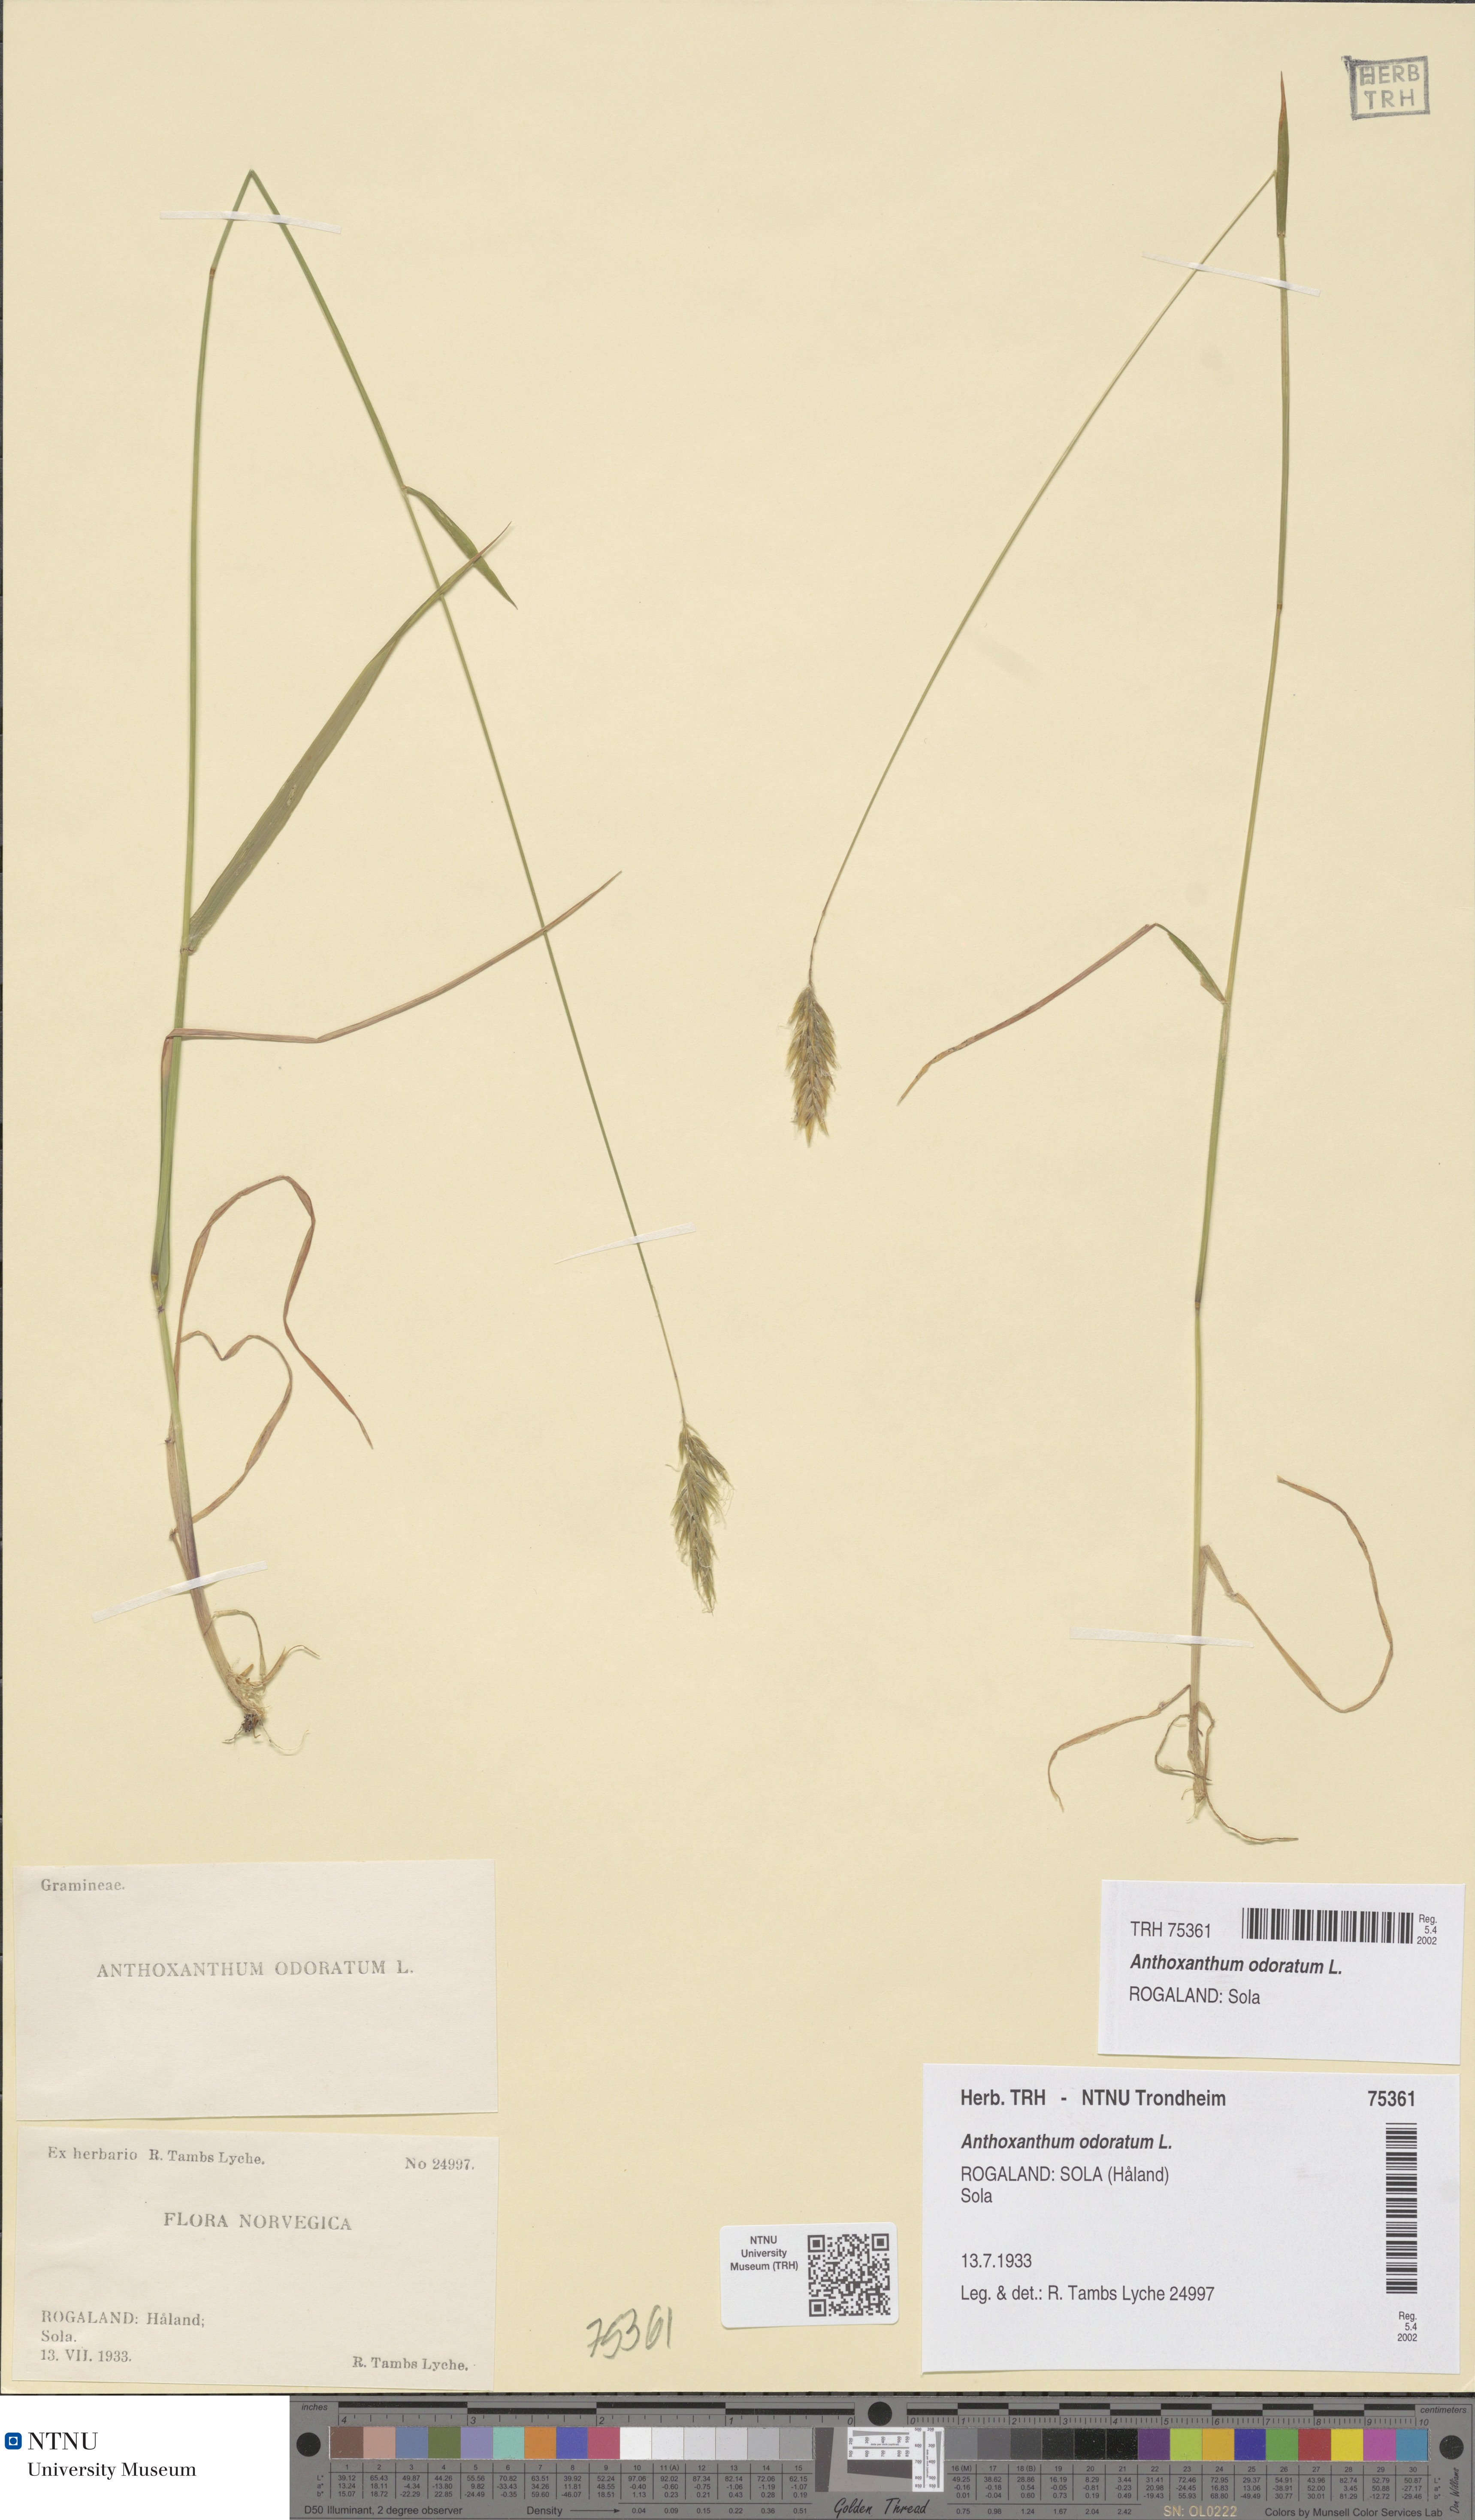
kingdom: Plantae
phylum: Tracheophyta
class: Liliopsida
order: Poales
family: Poaceae
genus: Anthoxanthum
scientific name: Anthoxanthum odoratum
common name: Sweet vernalgrass
